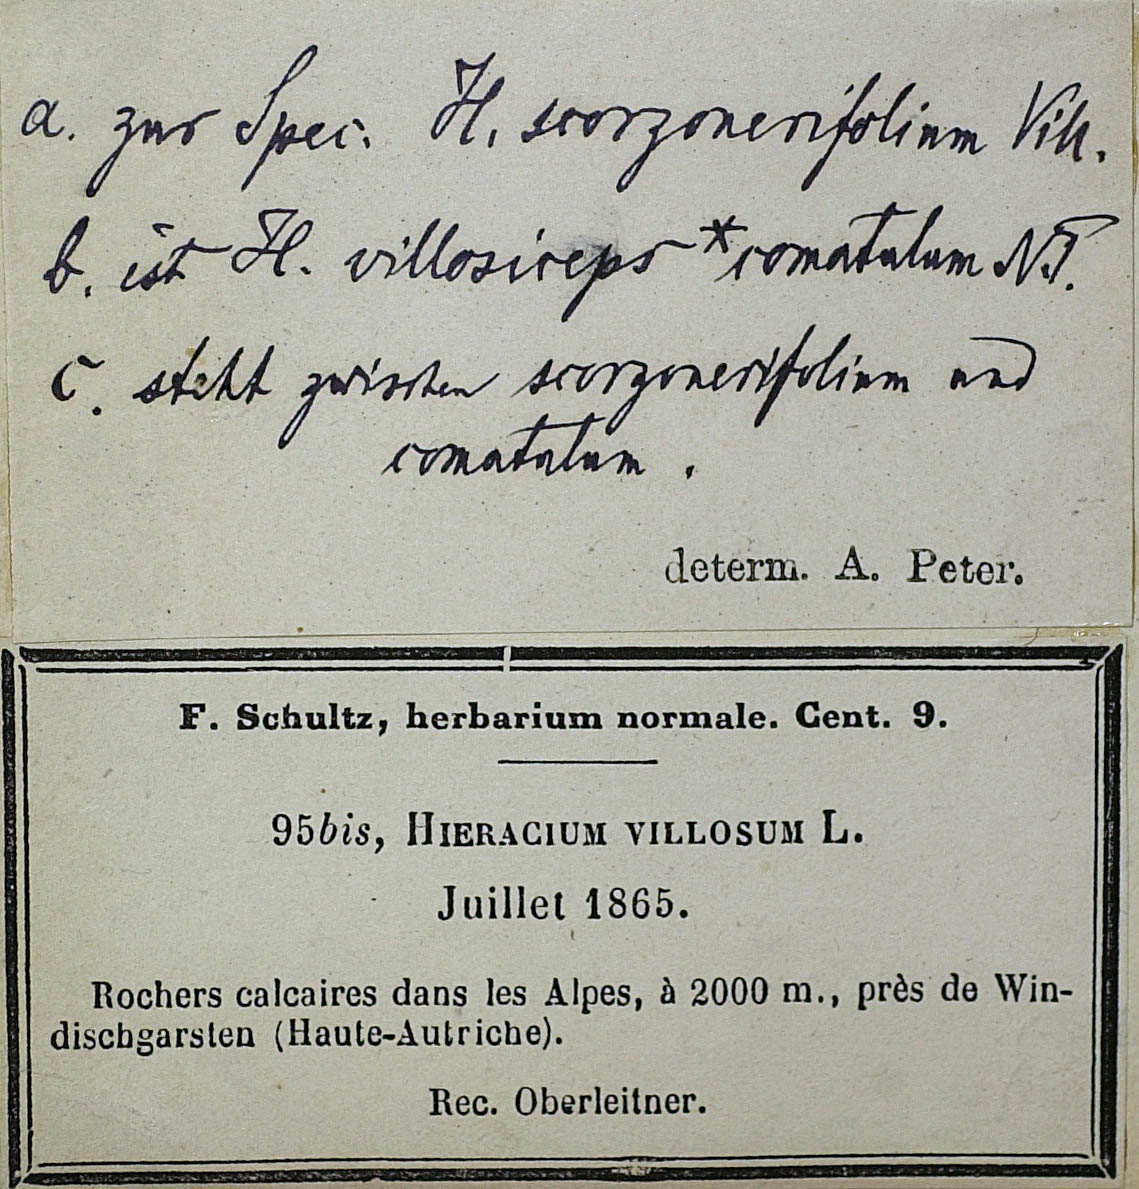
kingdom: Plantae
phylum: Tracheophyta
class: Magnoliopsida
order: Asterales
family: Asteraceae
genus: Hieracium
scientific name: Hieracium scorzonerifolium
